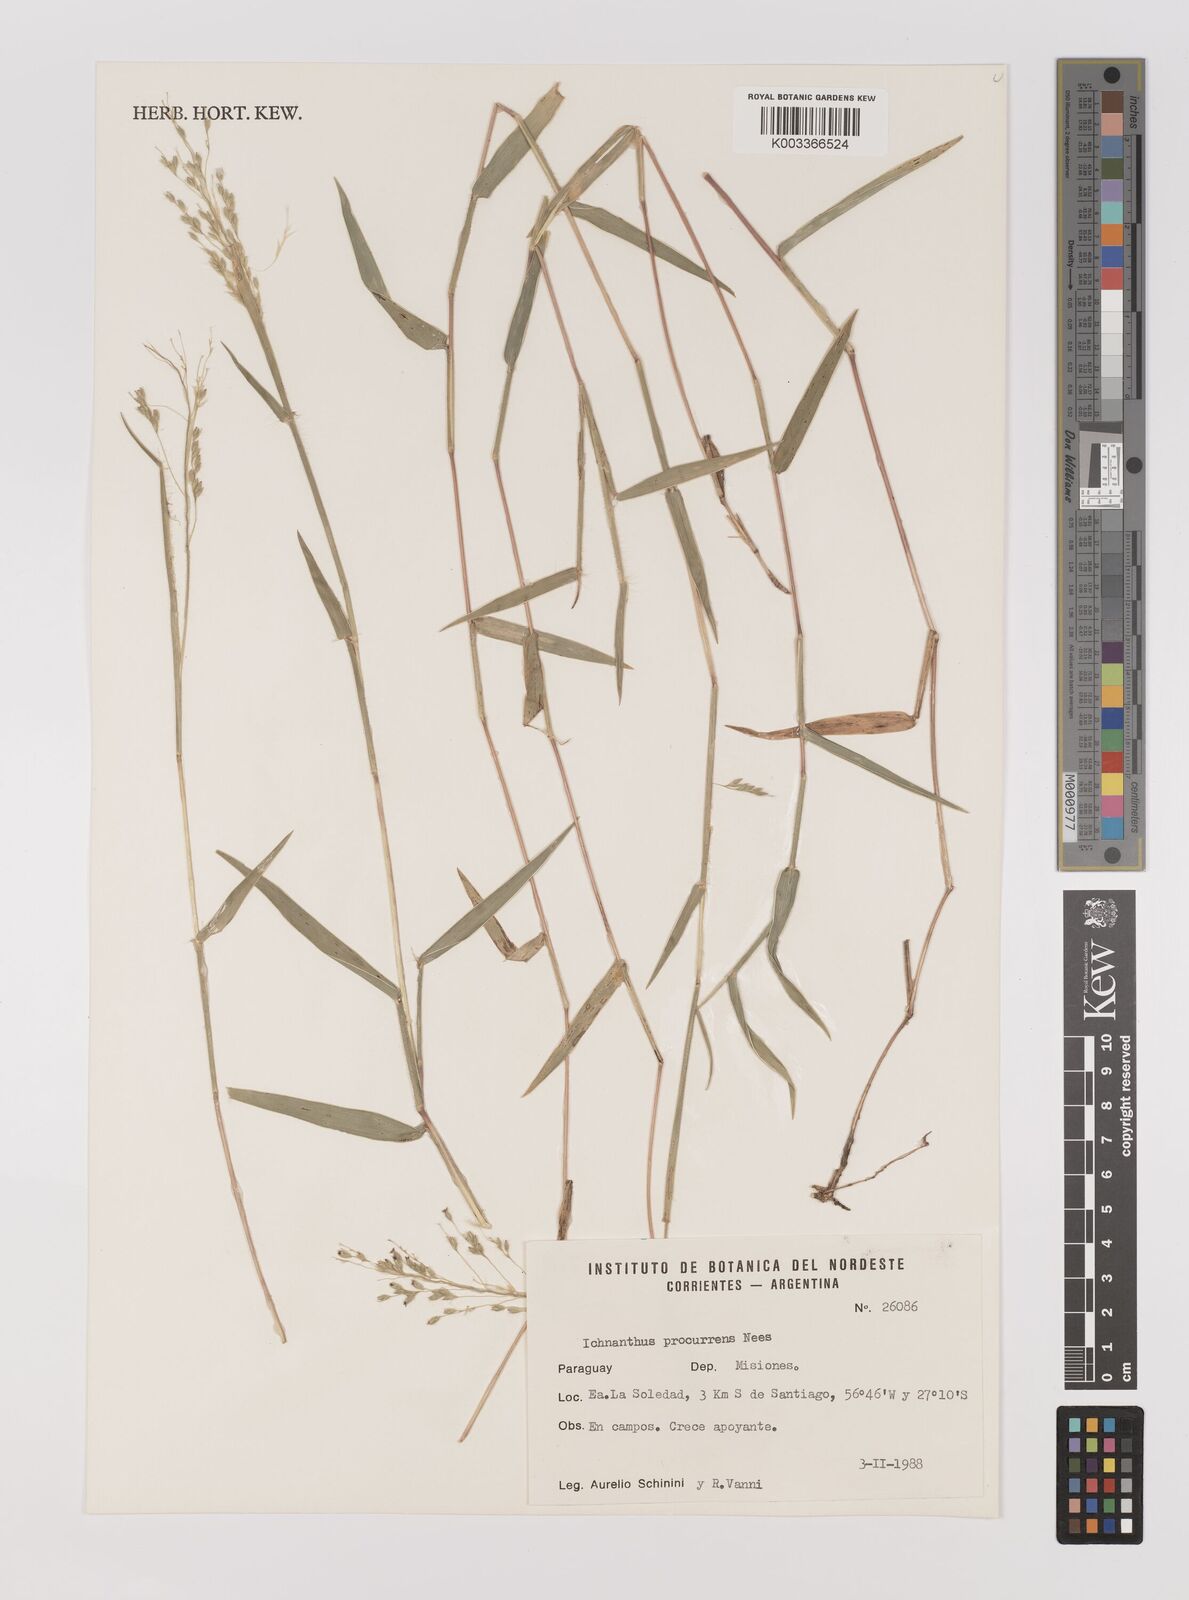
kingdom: Plantae
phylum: Tracheophyta
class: Liliopsida
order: Poales
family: Poaceae
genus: Oedochloa
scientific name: Oedochloa procurrens
